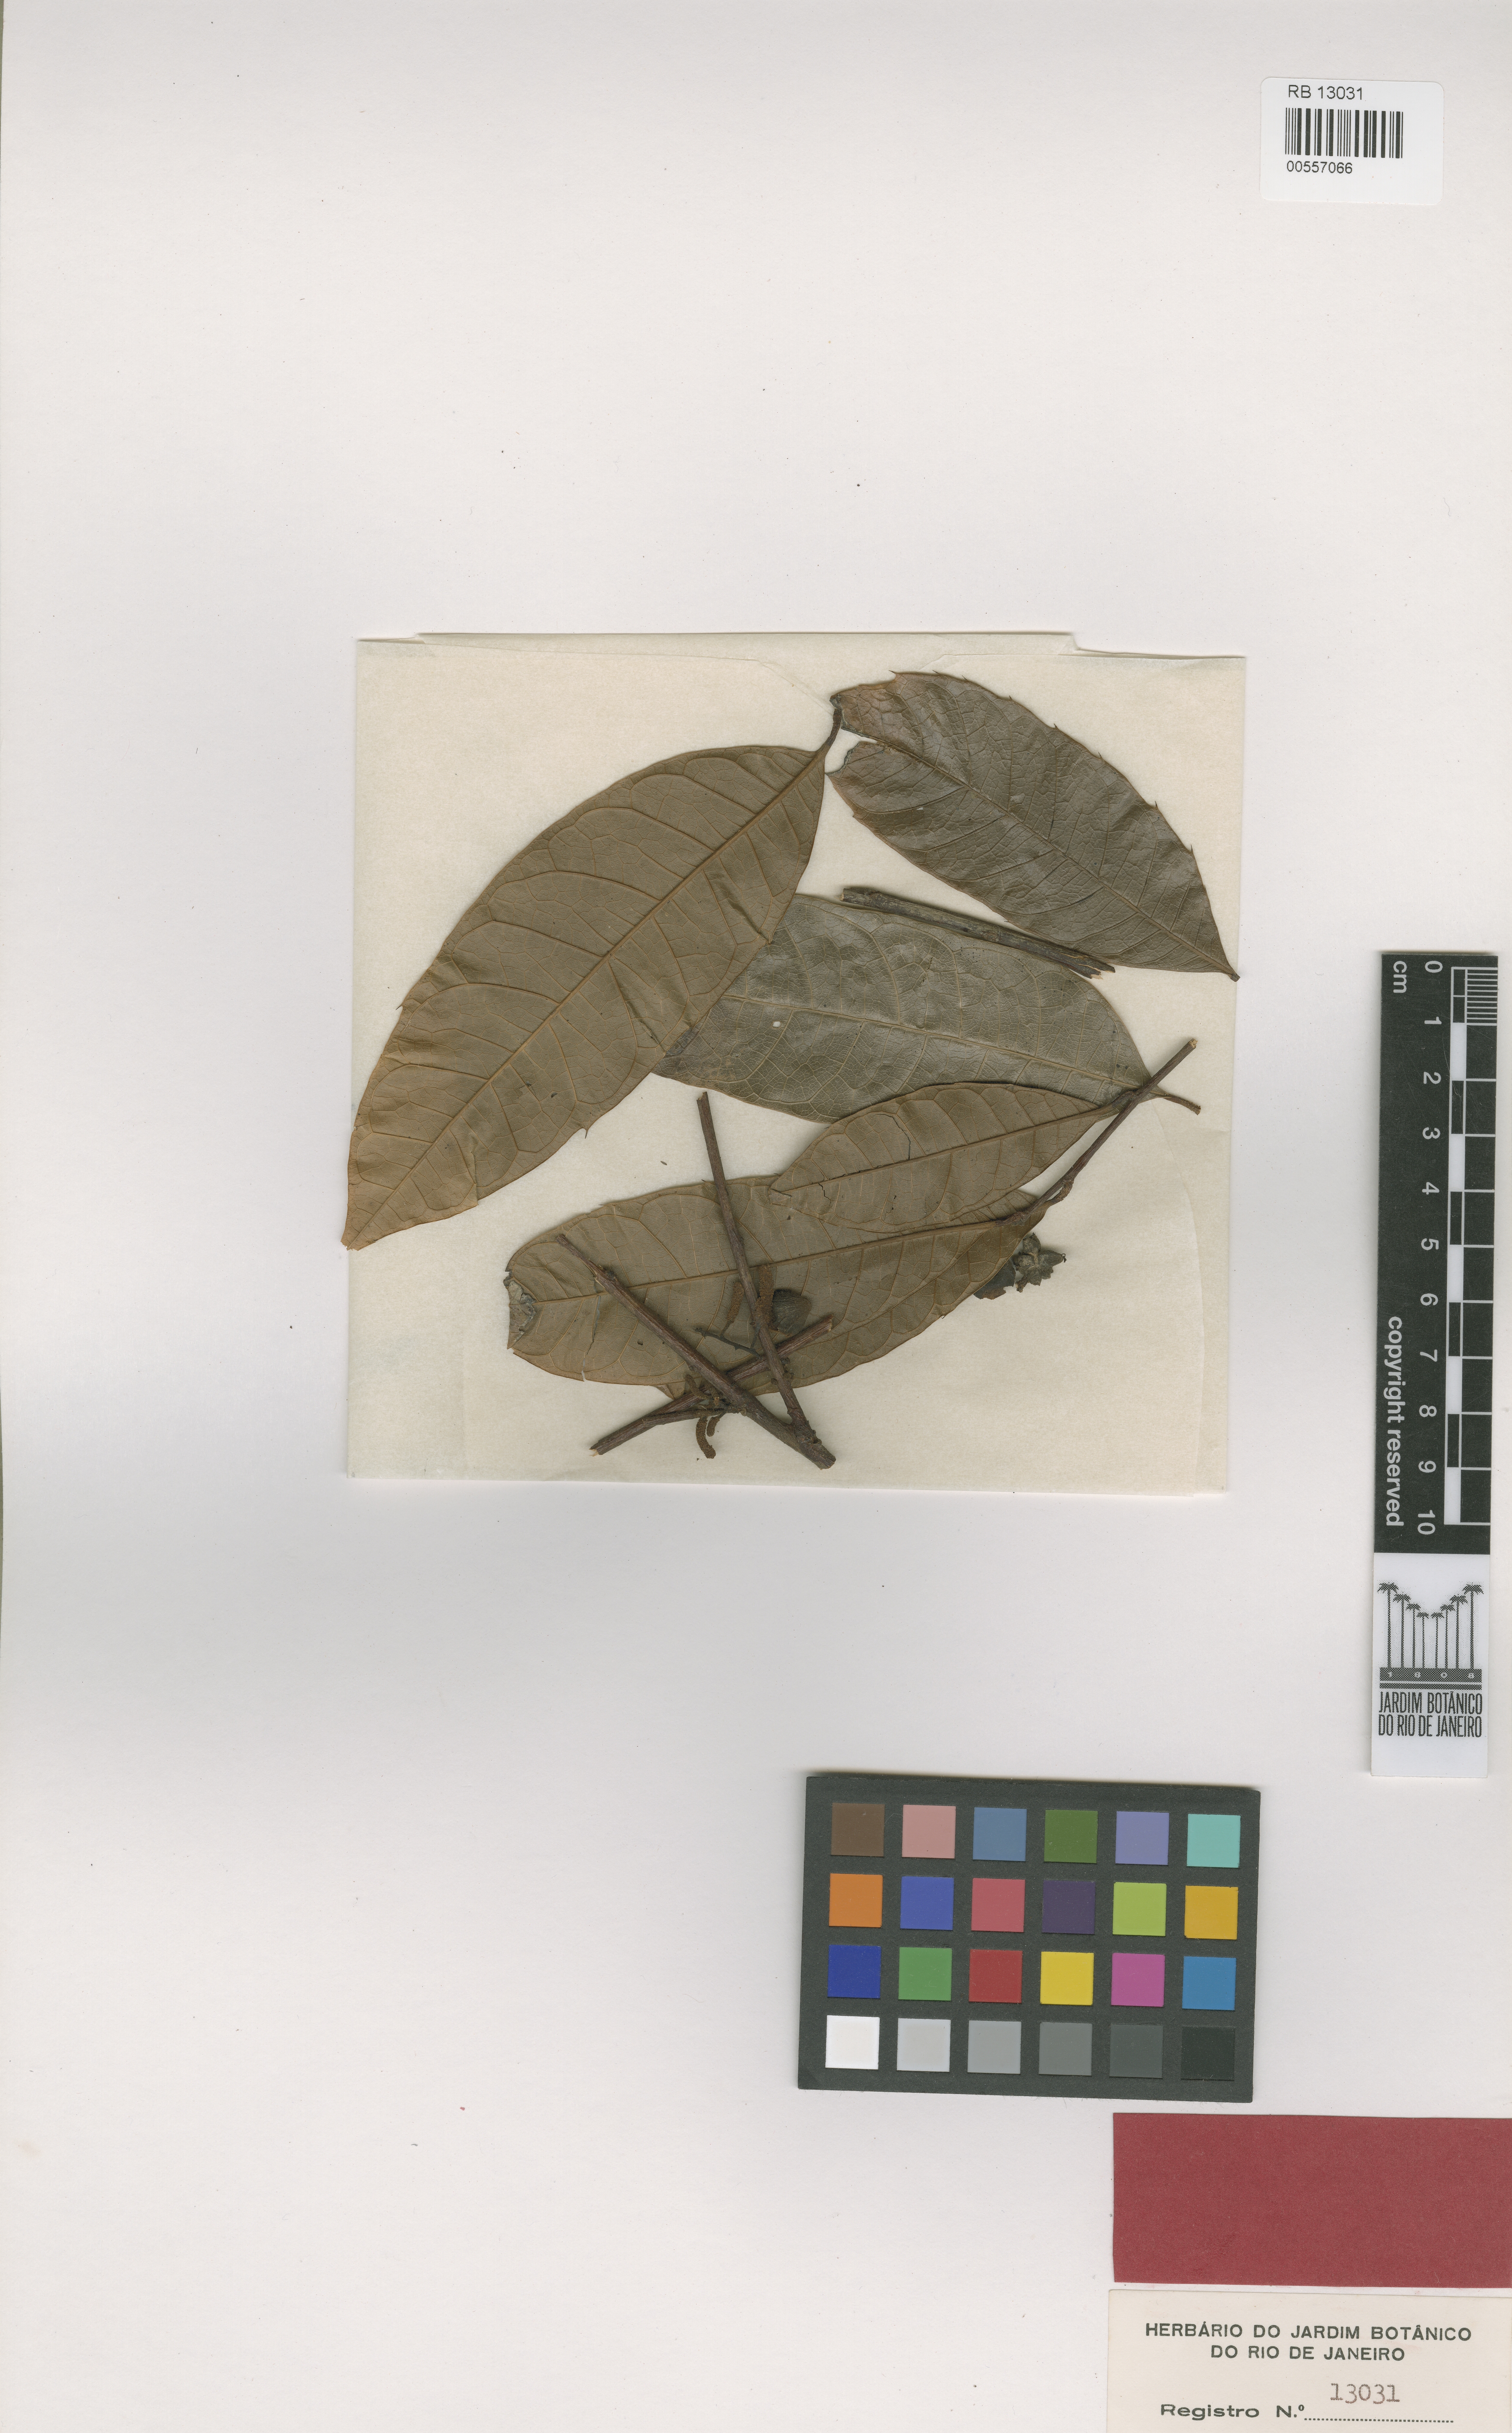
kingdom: Plantae
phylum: Tracheophyta
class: Magnoliopsida
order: Rosales
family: Moraceae
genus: Clarisia
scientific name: Clarisia ilicifolia
